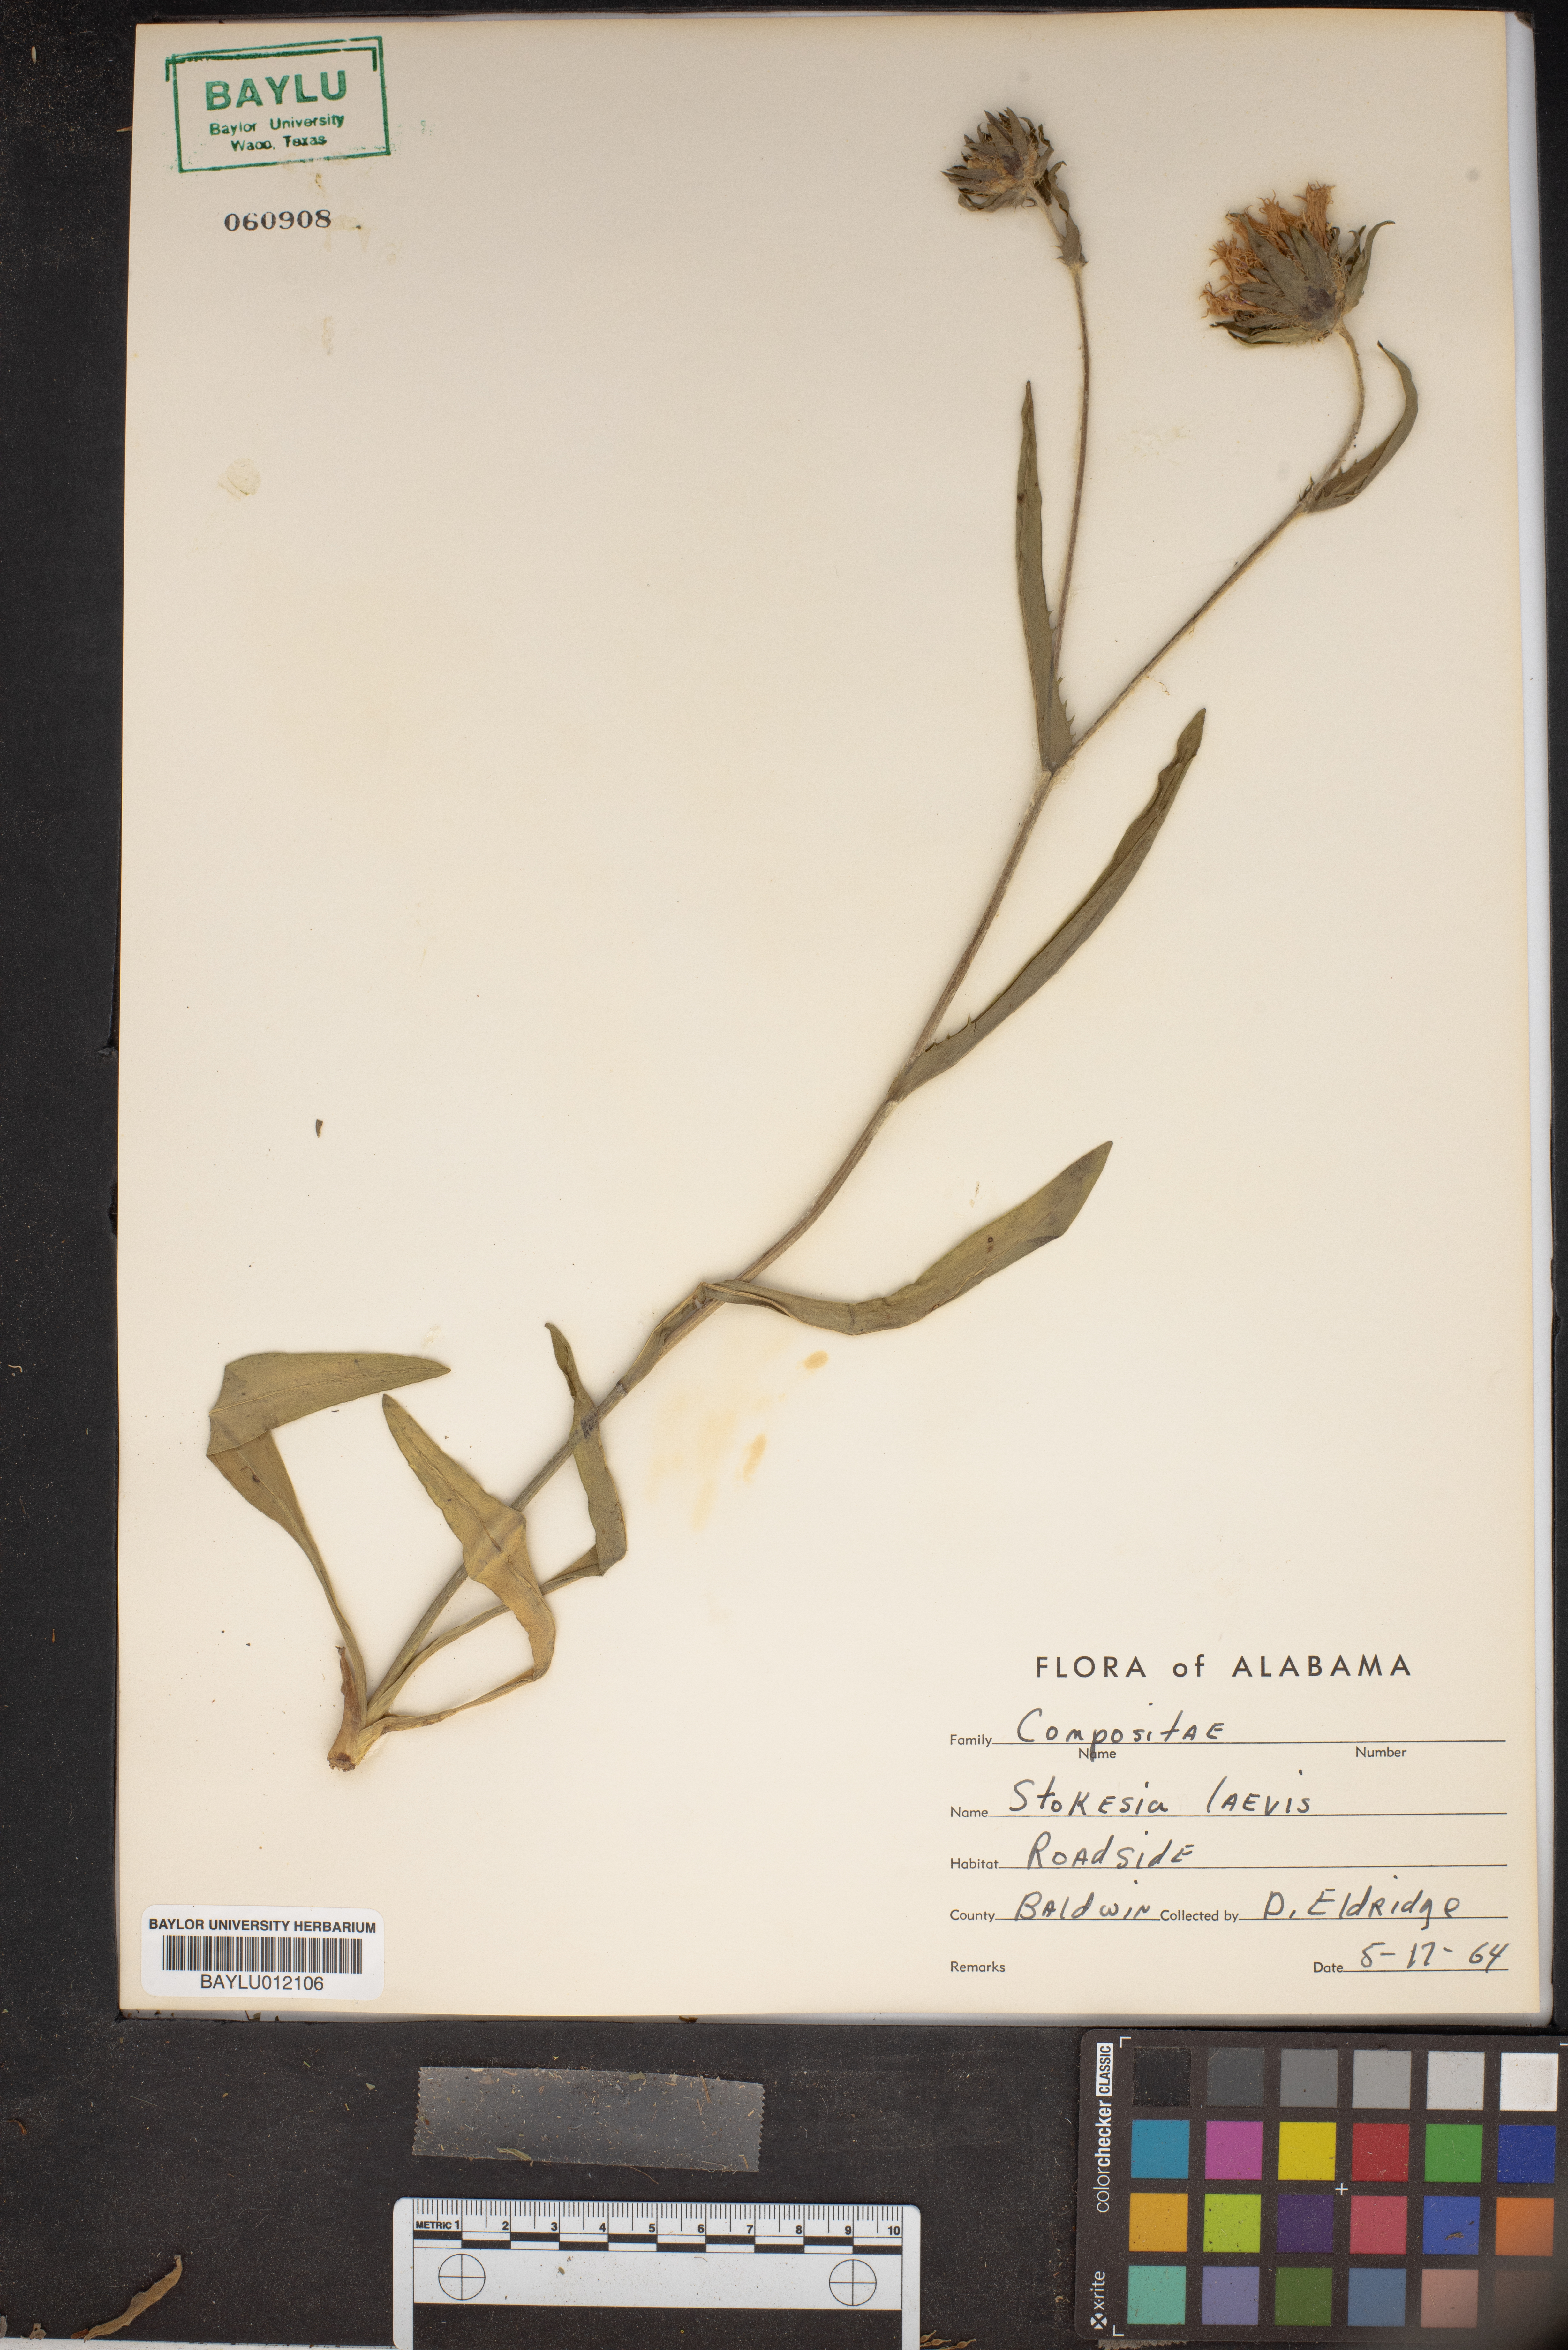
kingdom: Plantae
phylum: Tracheophyta
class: Magnoliopsida
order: Asterales
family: Asteraceae
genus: Stokesia
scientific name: Stokesia laevis
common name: Stokes'-aster
